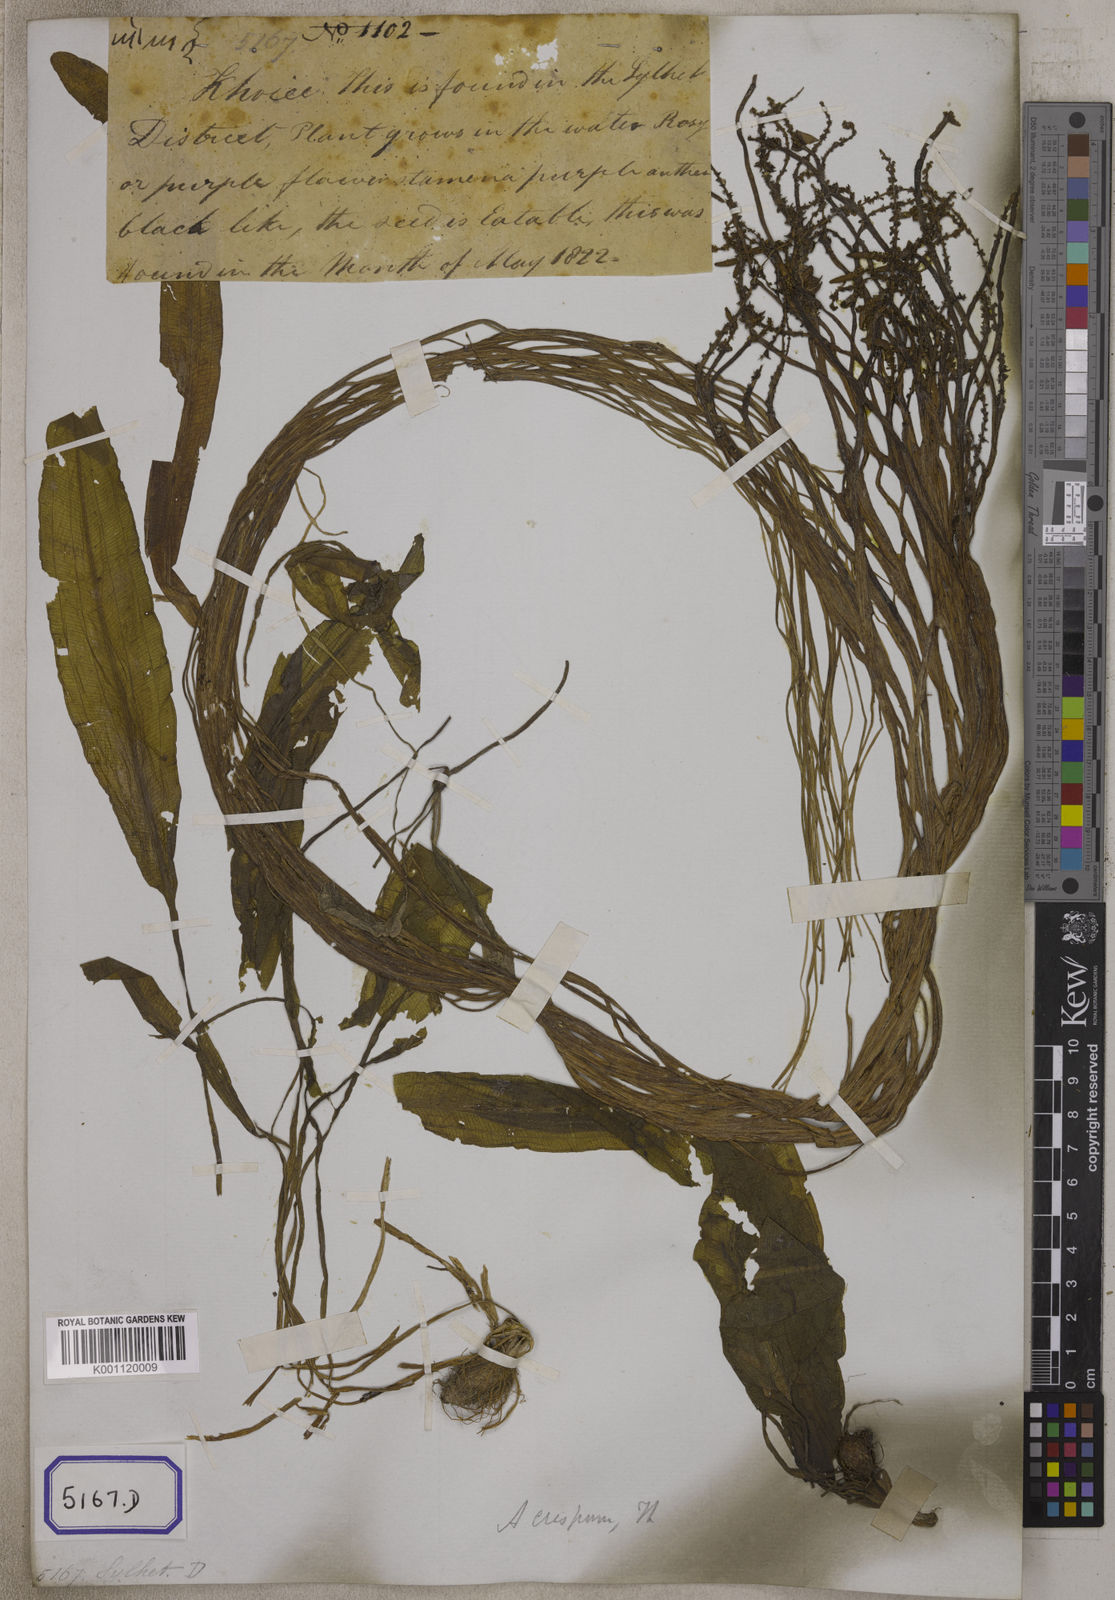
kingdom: Plantae
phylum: Tracheophyta
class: Liliopsida
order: Alismatales
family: Aponogetonaceae
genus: Aponogeton
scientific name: Aponogeton
